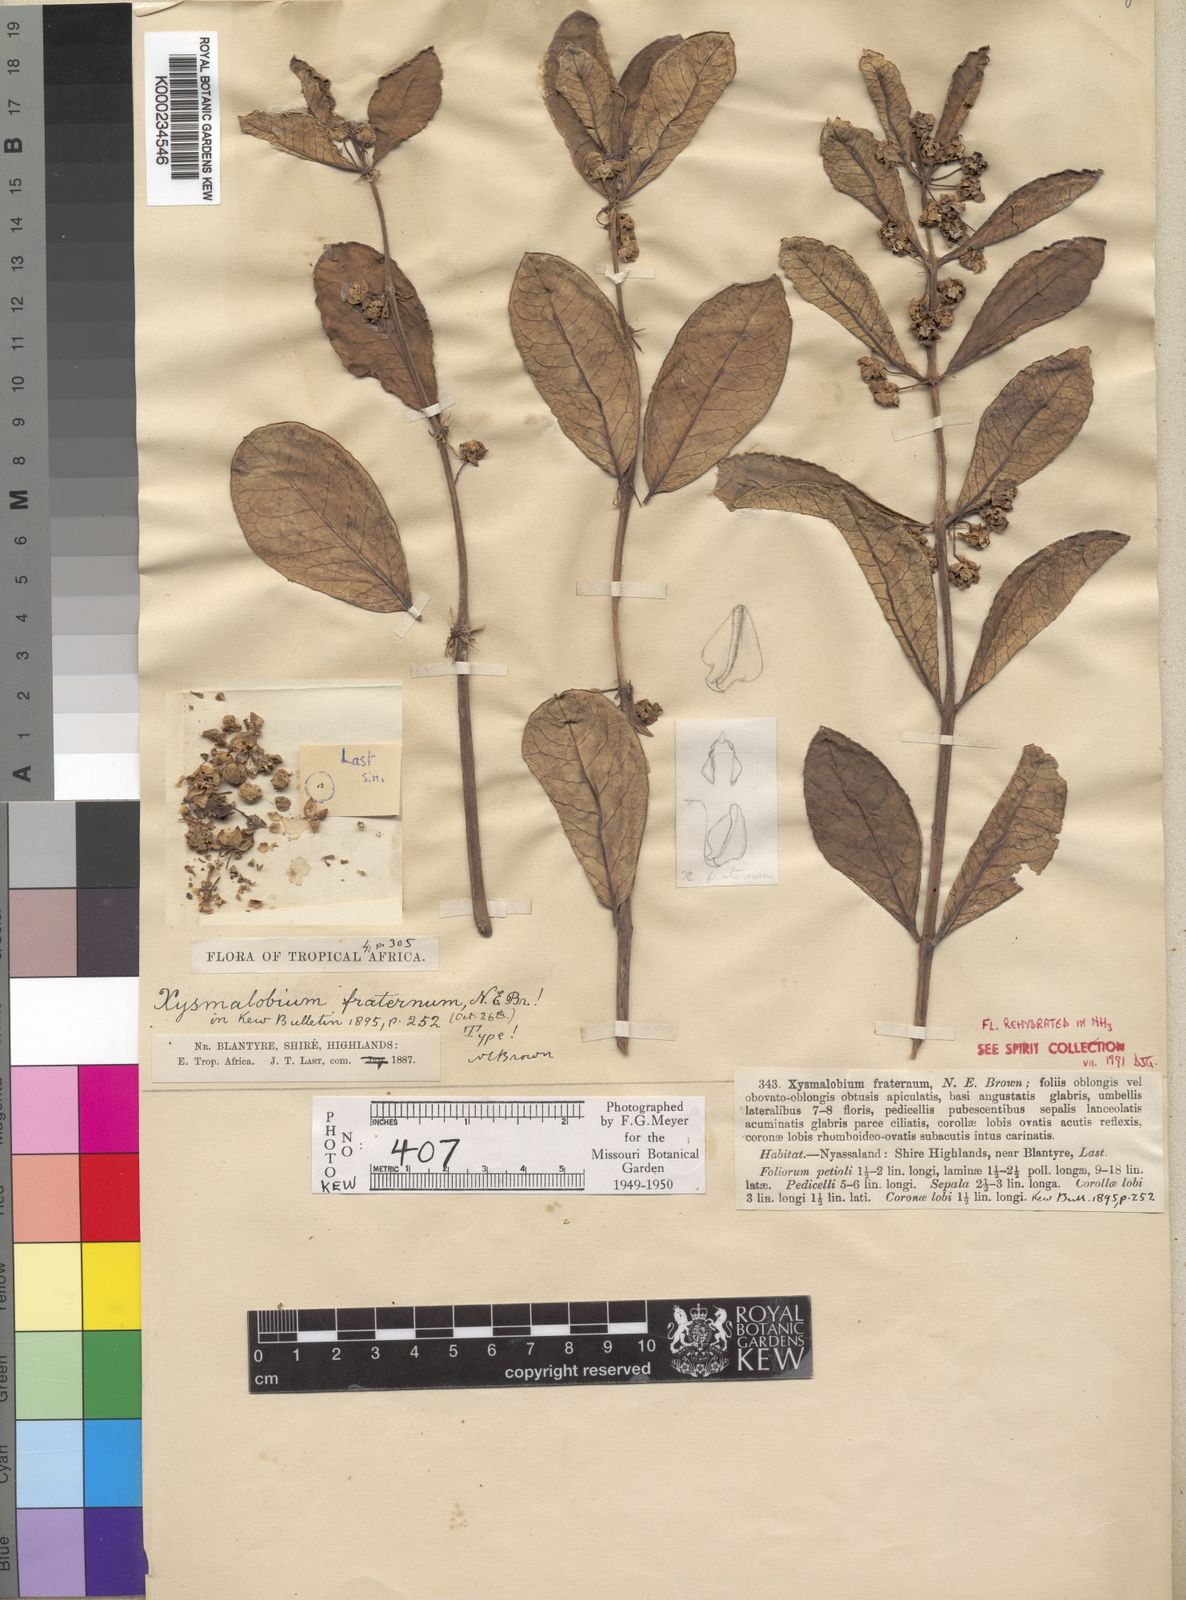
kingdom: Plantae
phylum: Tracheophyta
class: Magnoliopsida
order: Gentianales
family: Apocynaceae
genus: Xysmalobium
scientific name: Xysmalobium fraternum
